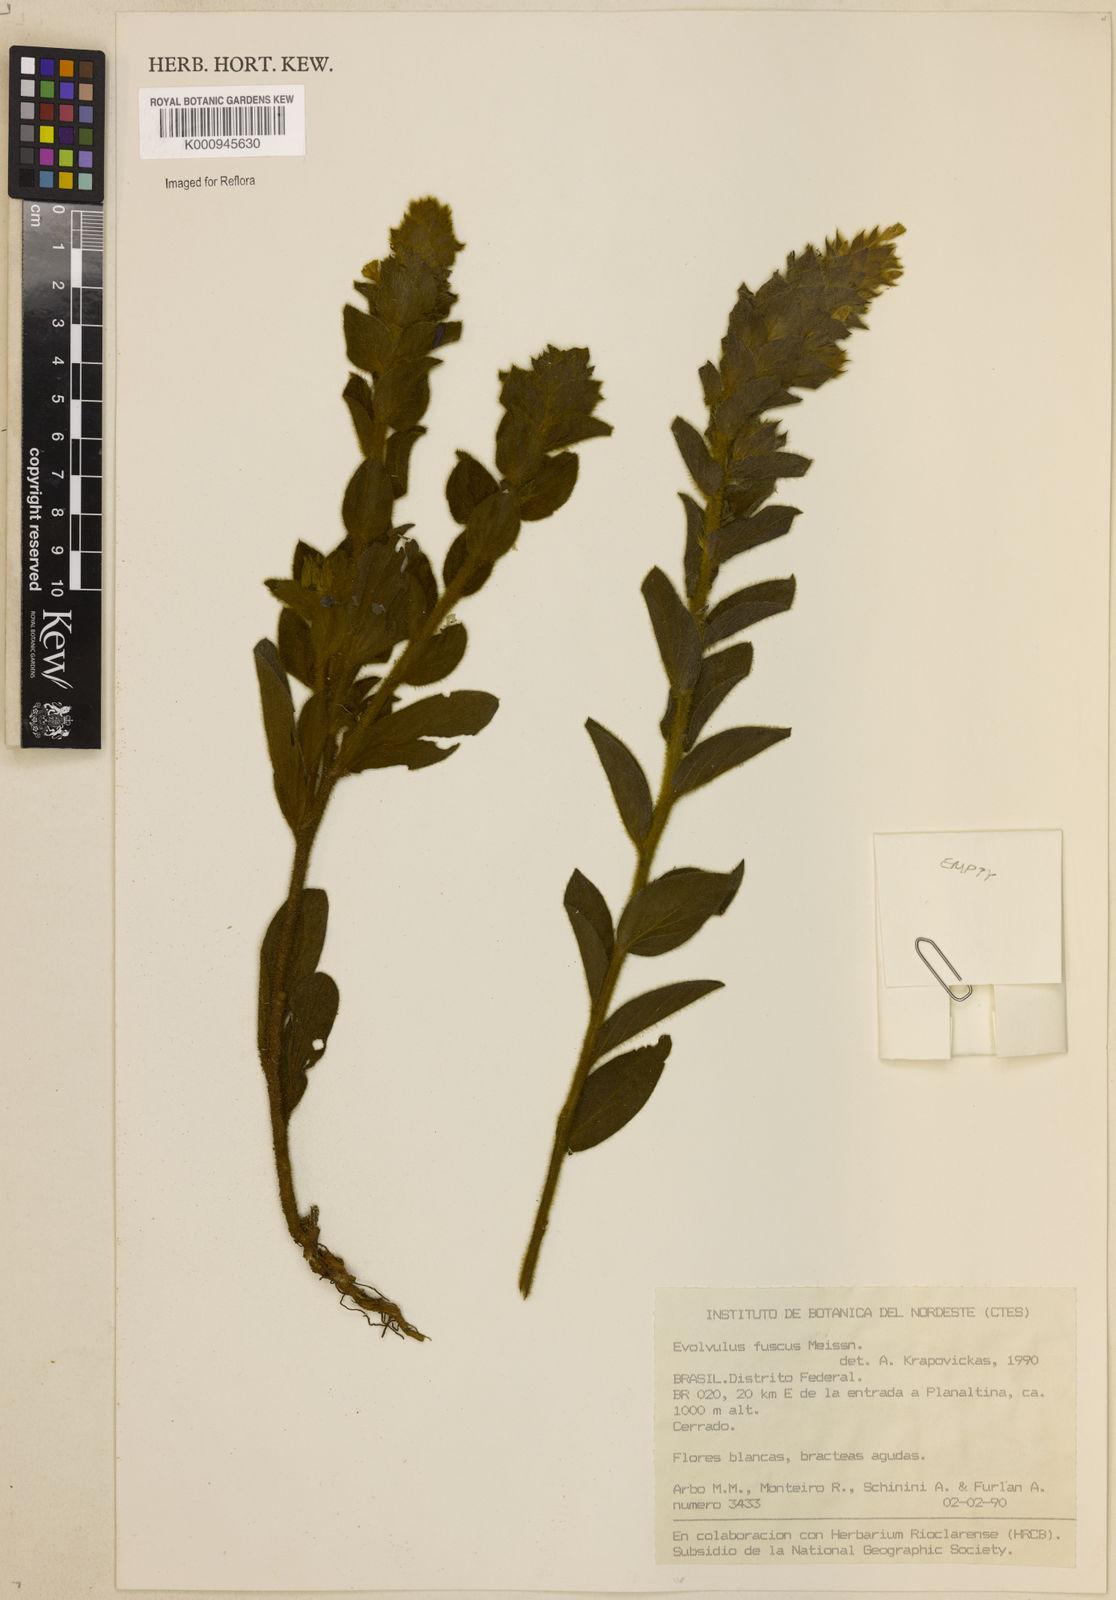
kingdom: Plantae
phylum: Tracheophyta
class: Magnoliopsida
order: Solanales
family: Convolvulaceae
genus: Evolvulus
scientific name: Evolvulus fuscus
